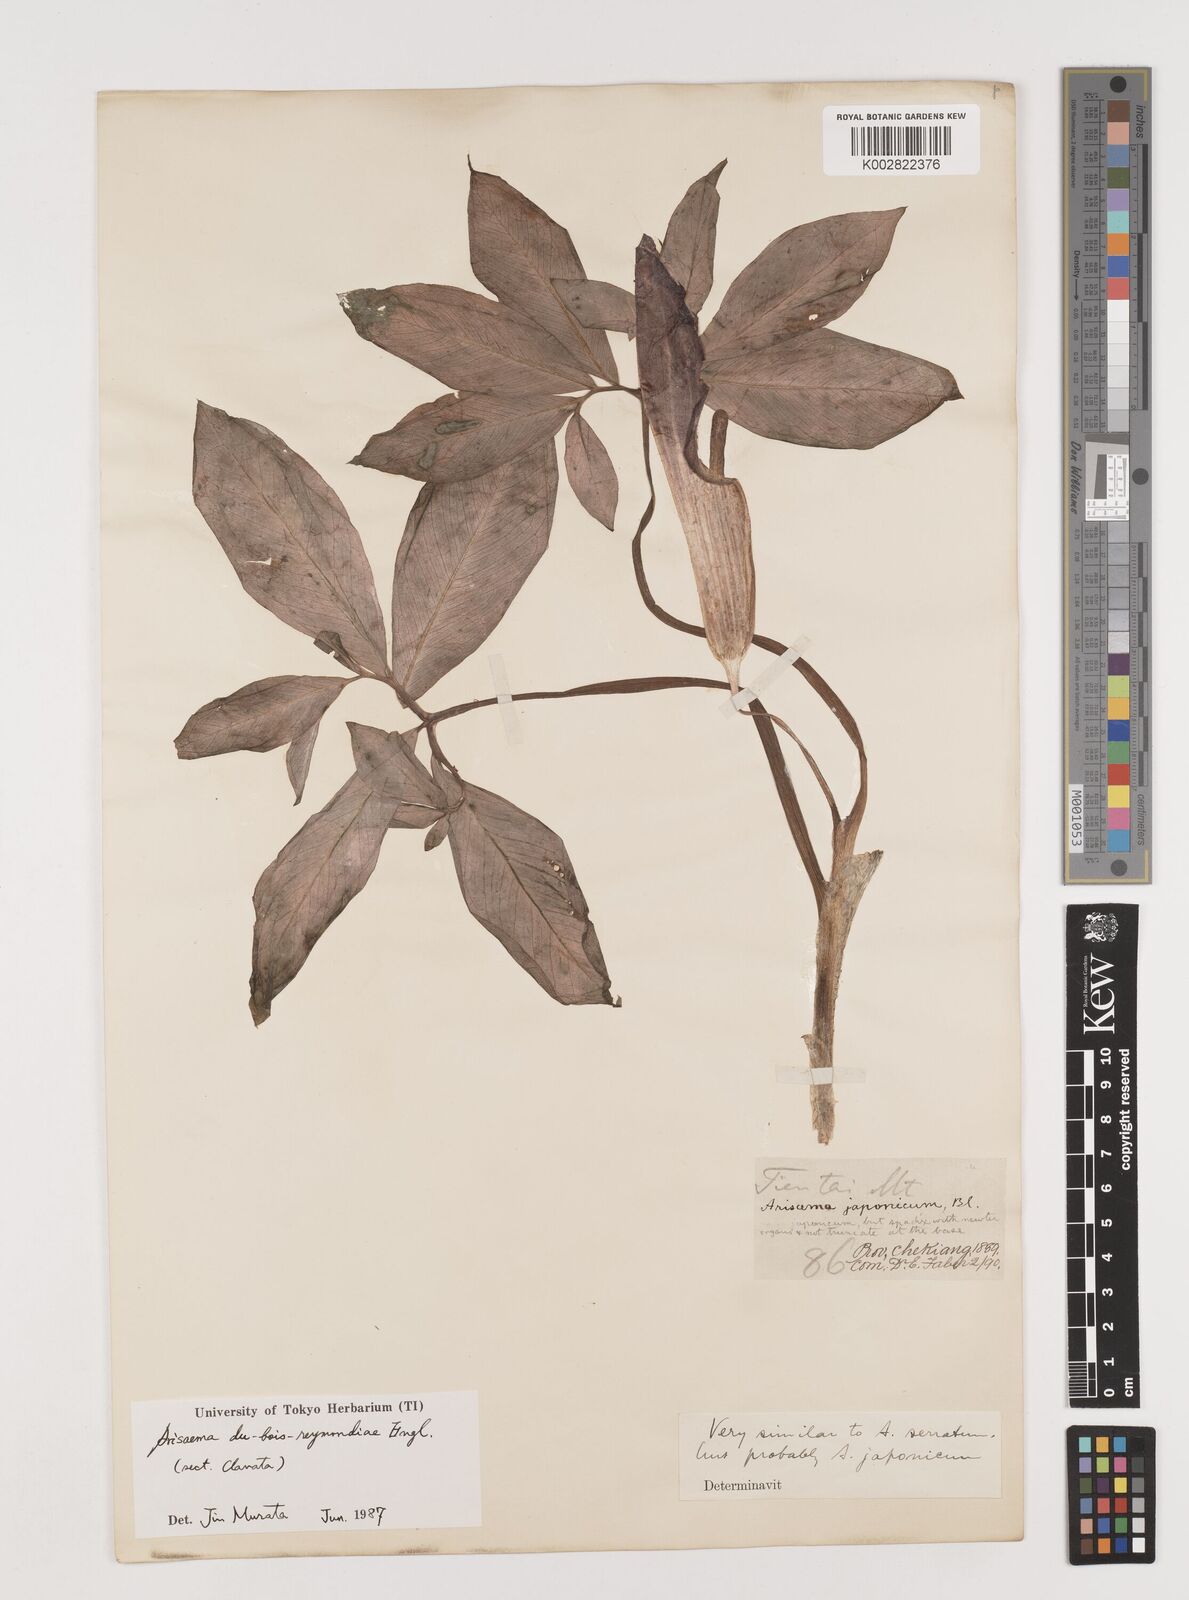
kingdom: Plantae
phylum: Tracheophyta
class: Liliopsida
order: Alismatales
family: Araceae
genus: Arisaema
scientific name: Arisaema silvestrii
